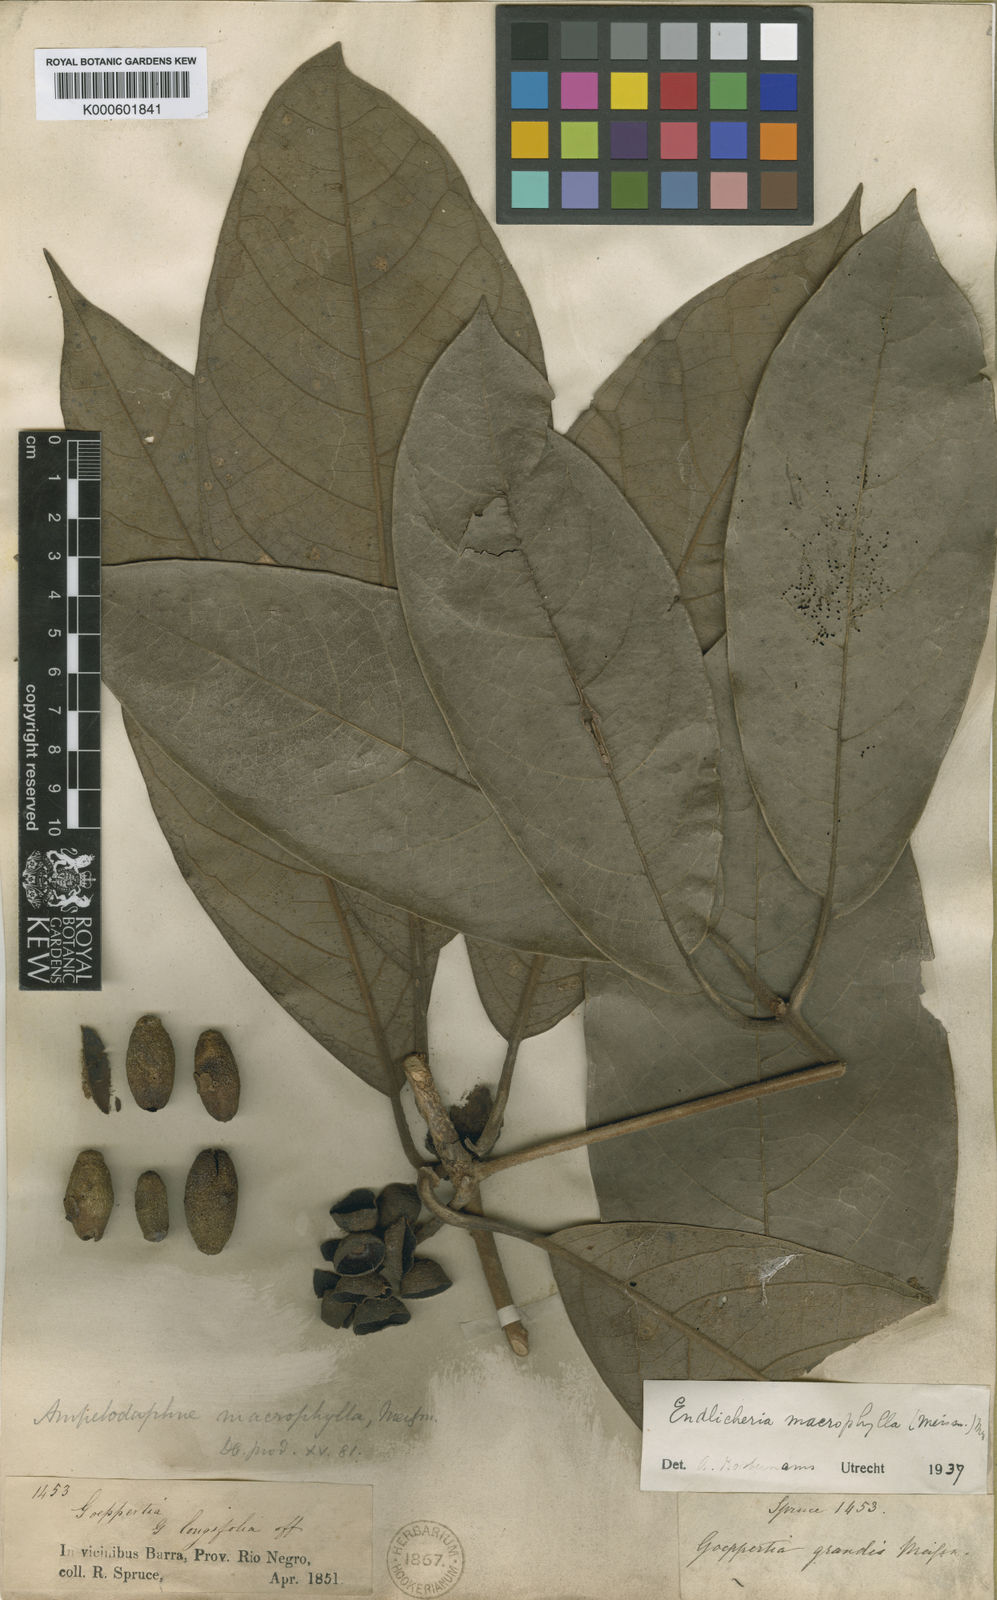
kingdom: Plantae
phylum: Tracheophyta
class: Magnoliopsida
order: Laurales
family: Lauraceae
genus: Endlicheria
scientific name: Endlicheria macrophylla
